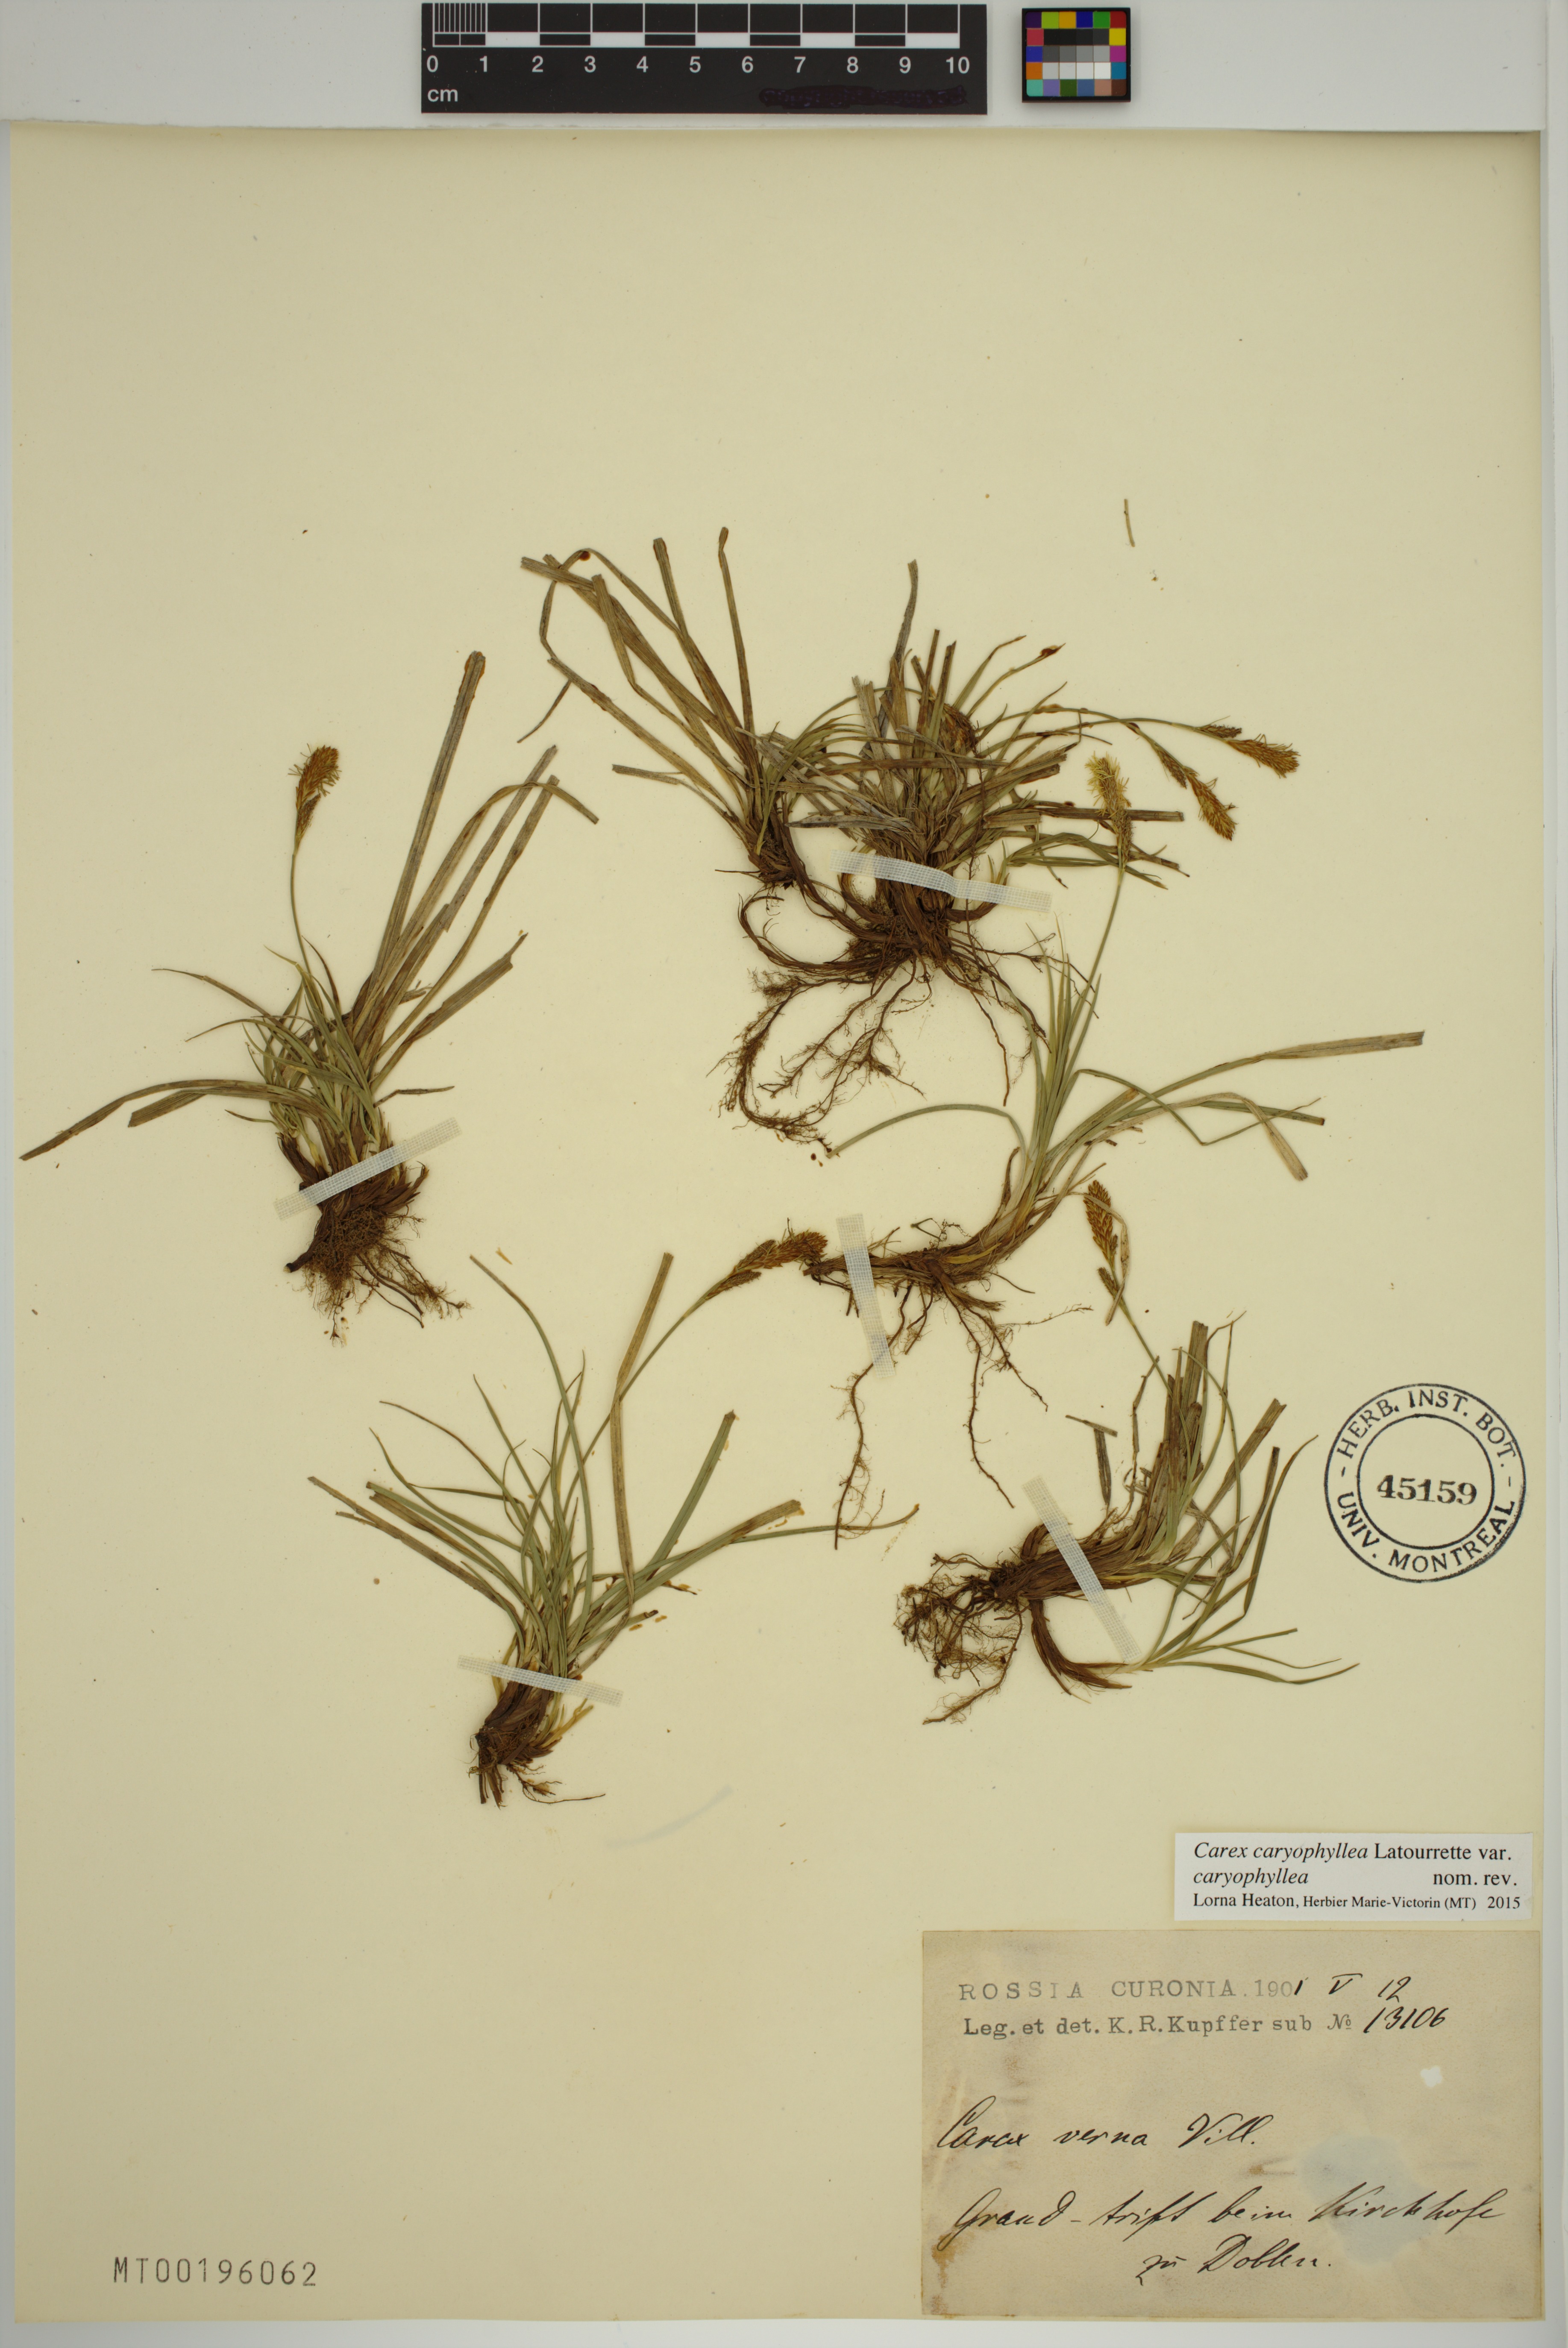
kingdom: Plantae
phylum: Tracheophyta
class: Liliopsida
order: Poales
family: Cyperaceae
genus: Carex
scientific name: Carex caryophyllea
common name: Spring sedge
